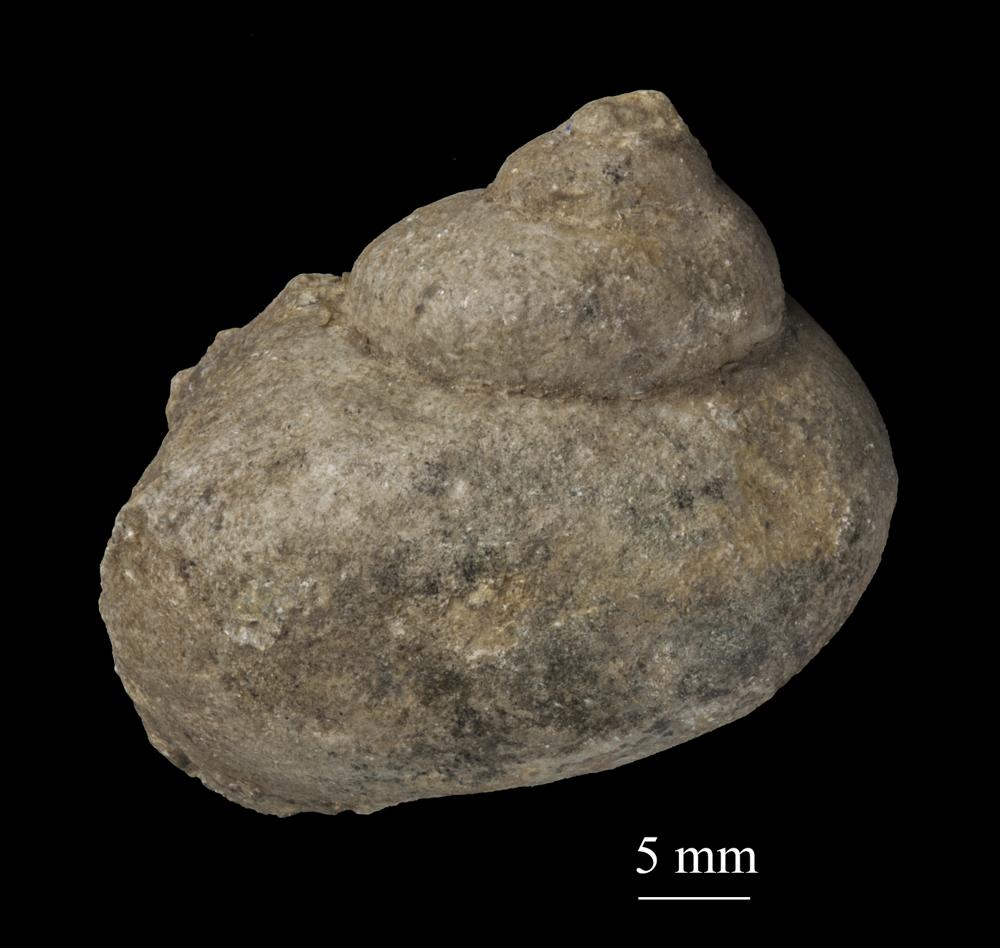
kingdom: Animalia
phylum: Mollusca
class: Gastropoda
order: Trochida
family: Turbinidae
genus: Turbo
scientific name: Turbo
